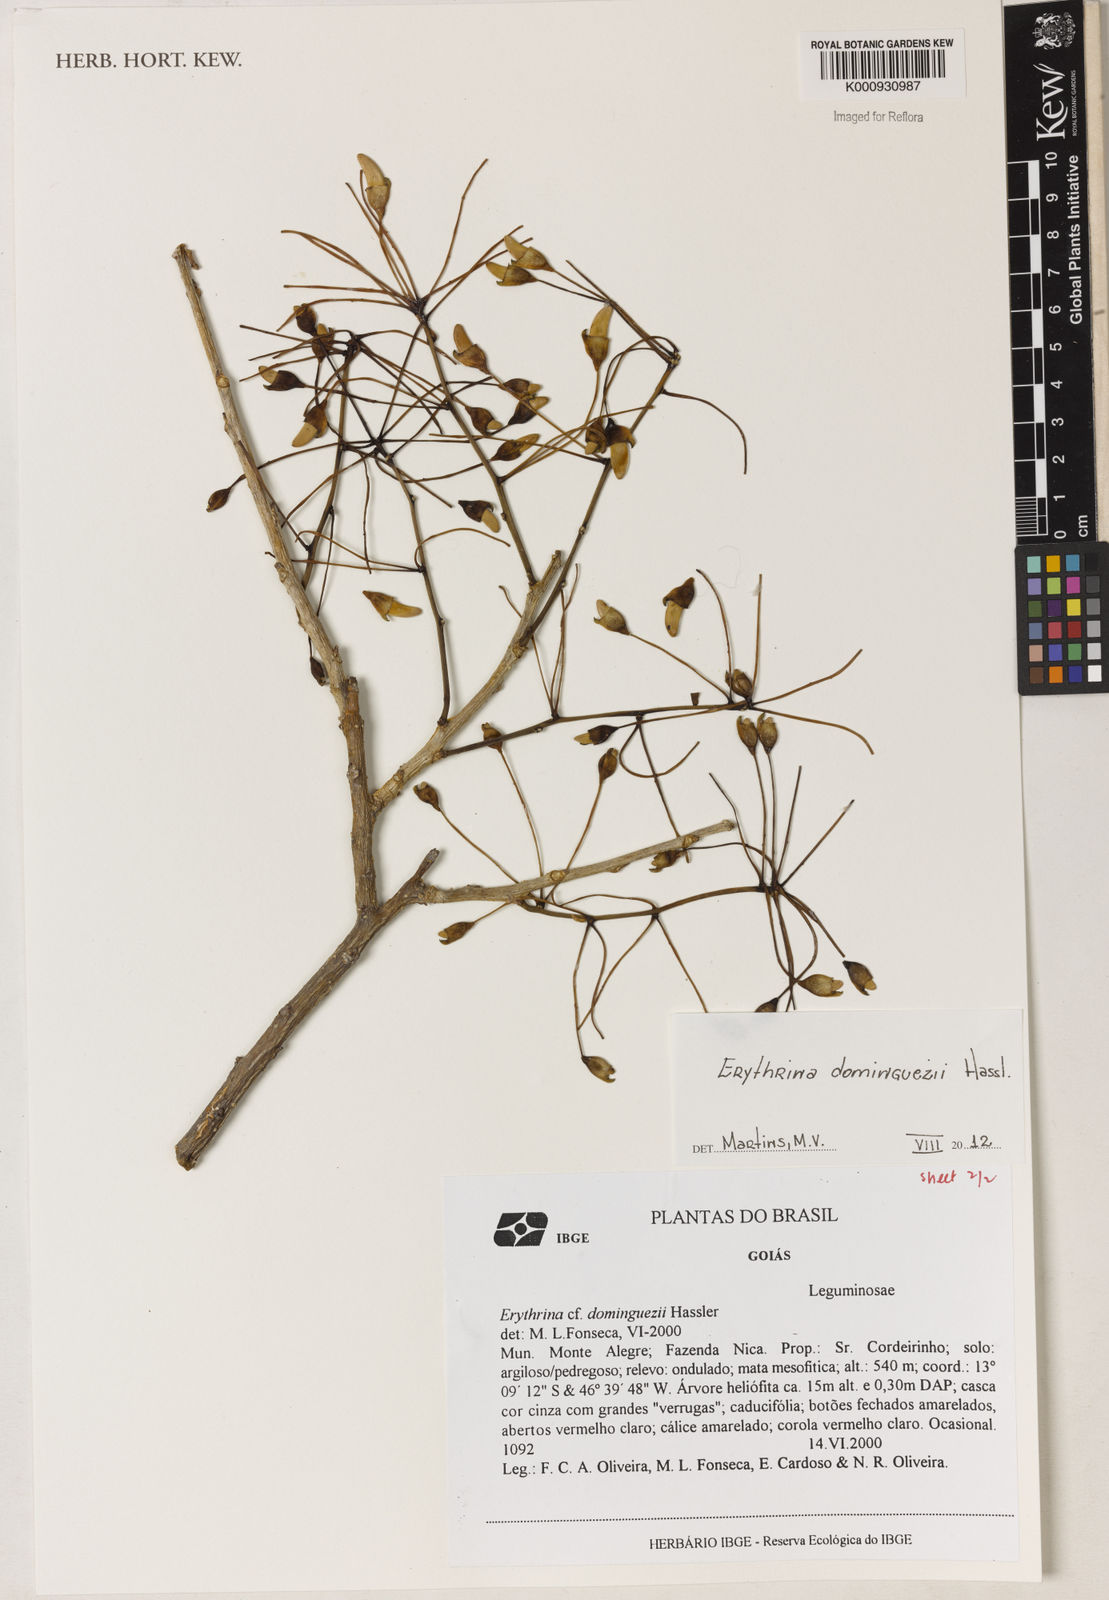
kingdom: Plantae
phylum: Tracheophyta
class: Magnoliopsida
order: Fabales
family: Fabaceae
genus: Erythrina
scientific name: Erythrina mulungu
